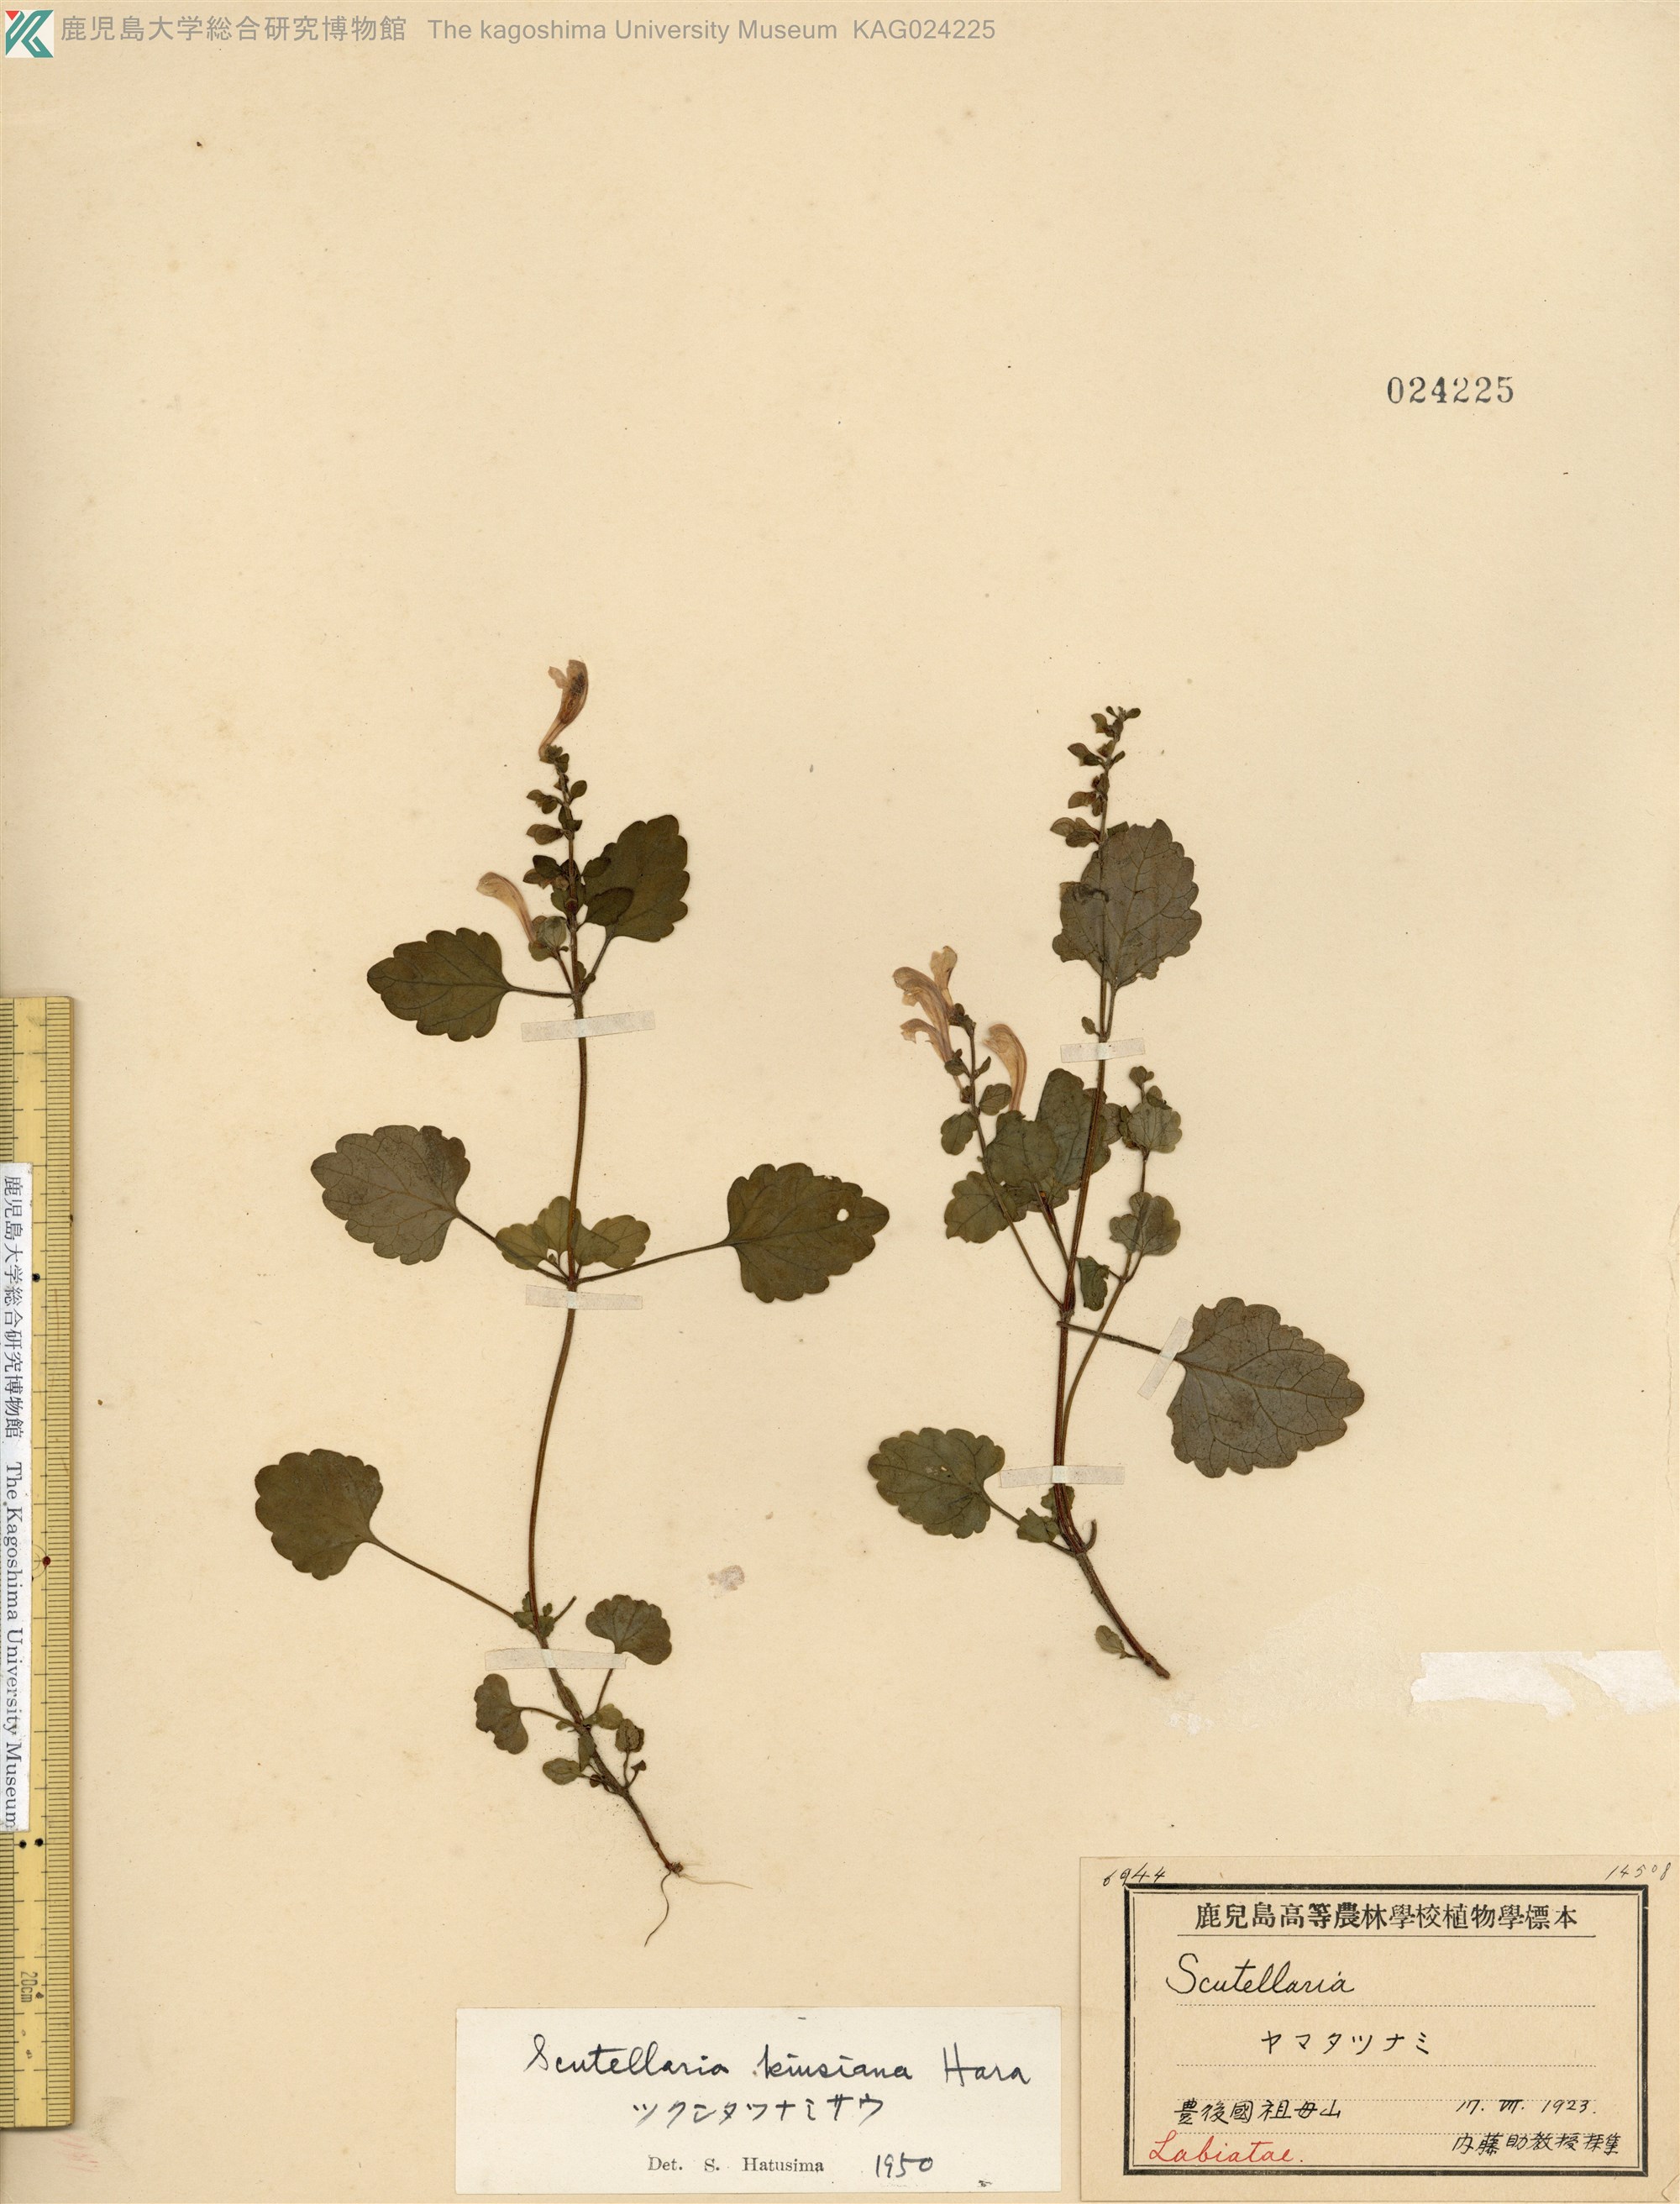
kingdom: Plantae
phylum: Tracheophyta
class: Magnoliopsida
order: Lamiales
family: Lamiaceae
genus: Scutellaria
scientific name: Scutellaria kiusiana
